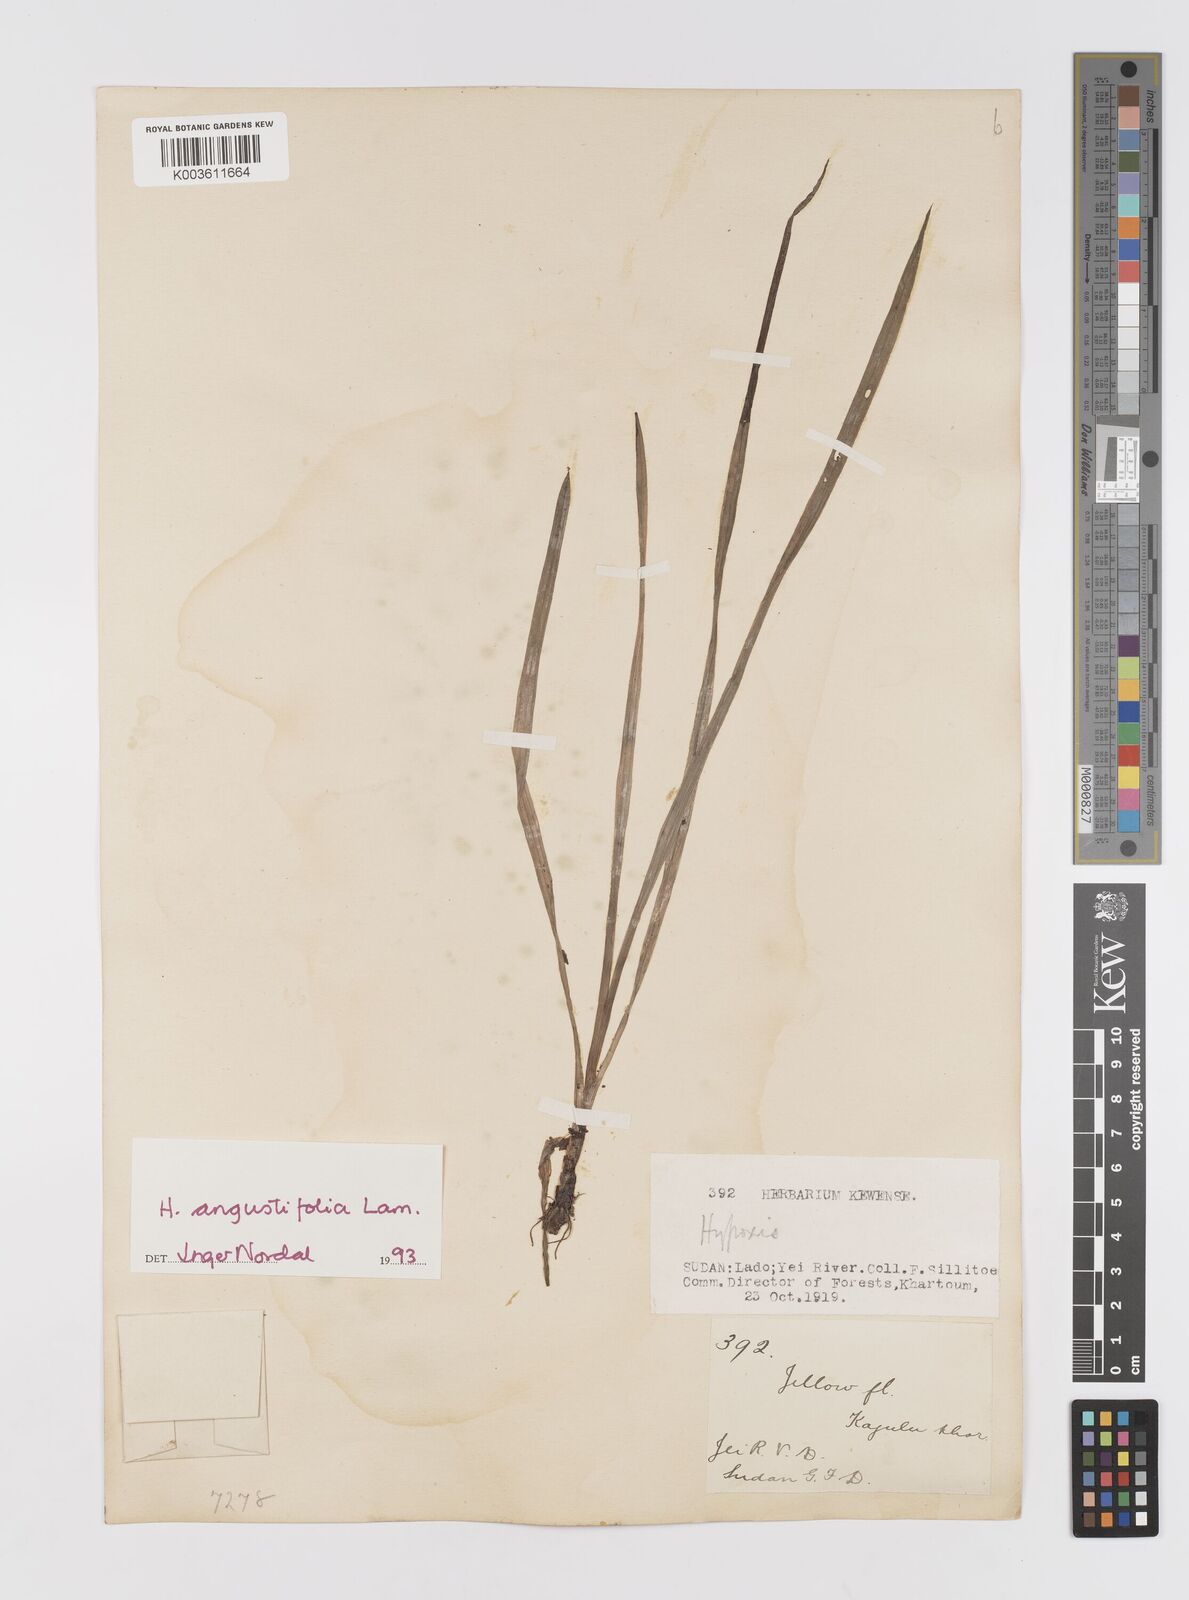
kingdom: Plantae
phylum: Tracheophyta
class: Liliopsida
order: Asparagales
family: Hypoxidaceae
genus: Hypoxis
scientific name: Hypoxis angustifolia
